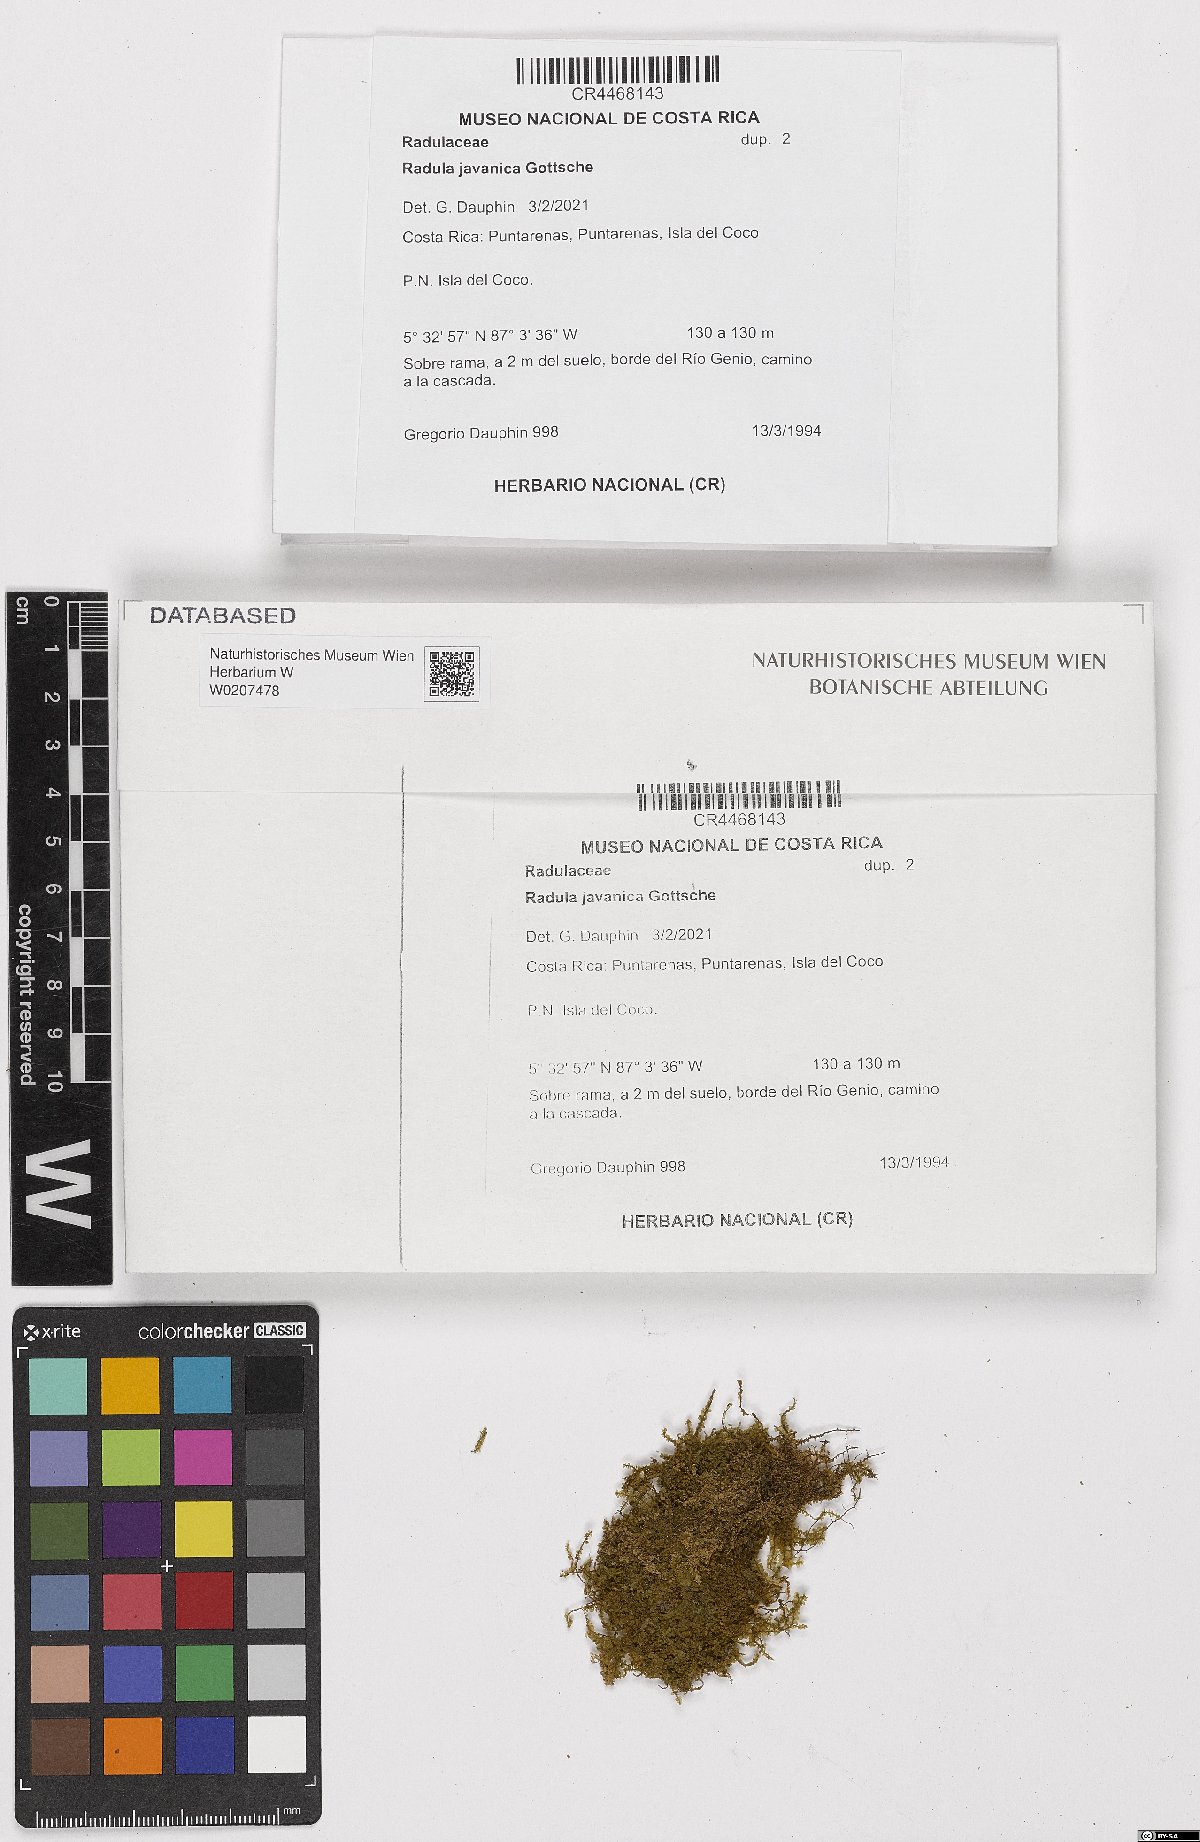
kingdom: Plantae
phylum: Marchantiophyta
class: Jungermanniopsida
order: Porellales
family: Radulaceae
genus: Radula
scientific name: Radula javanica
